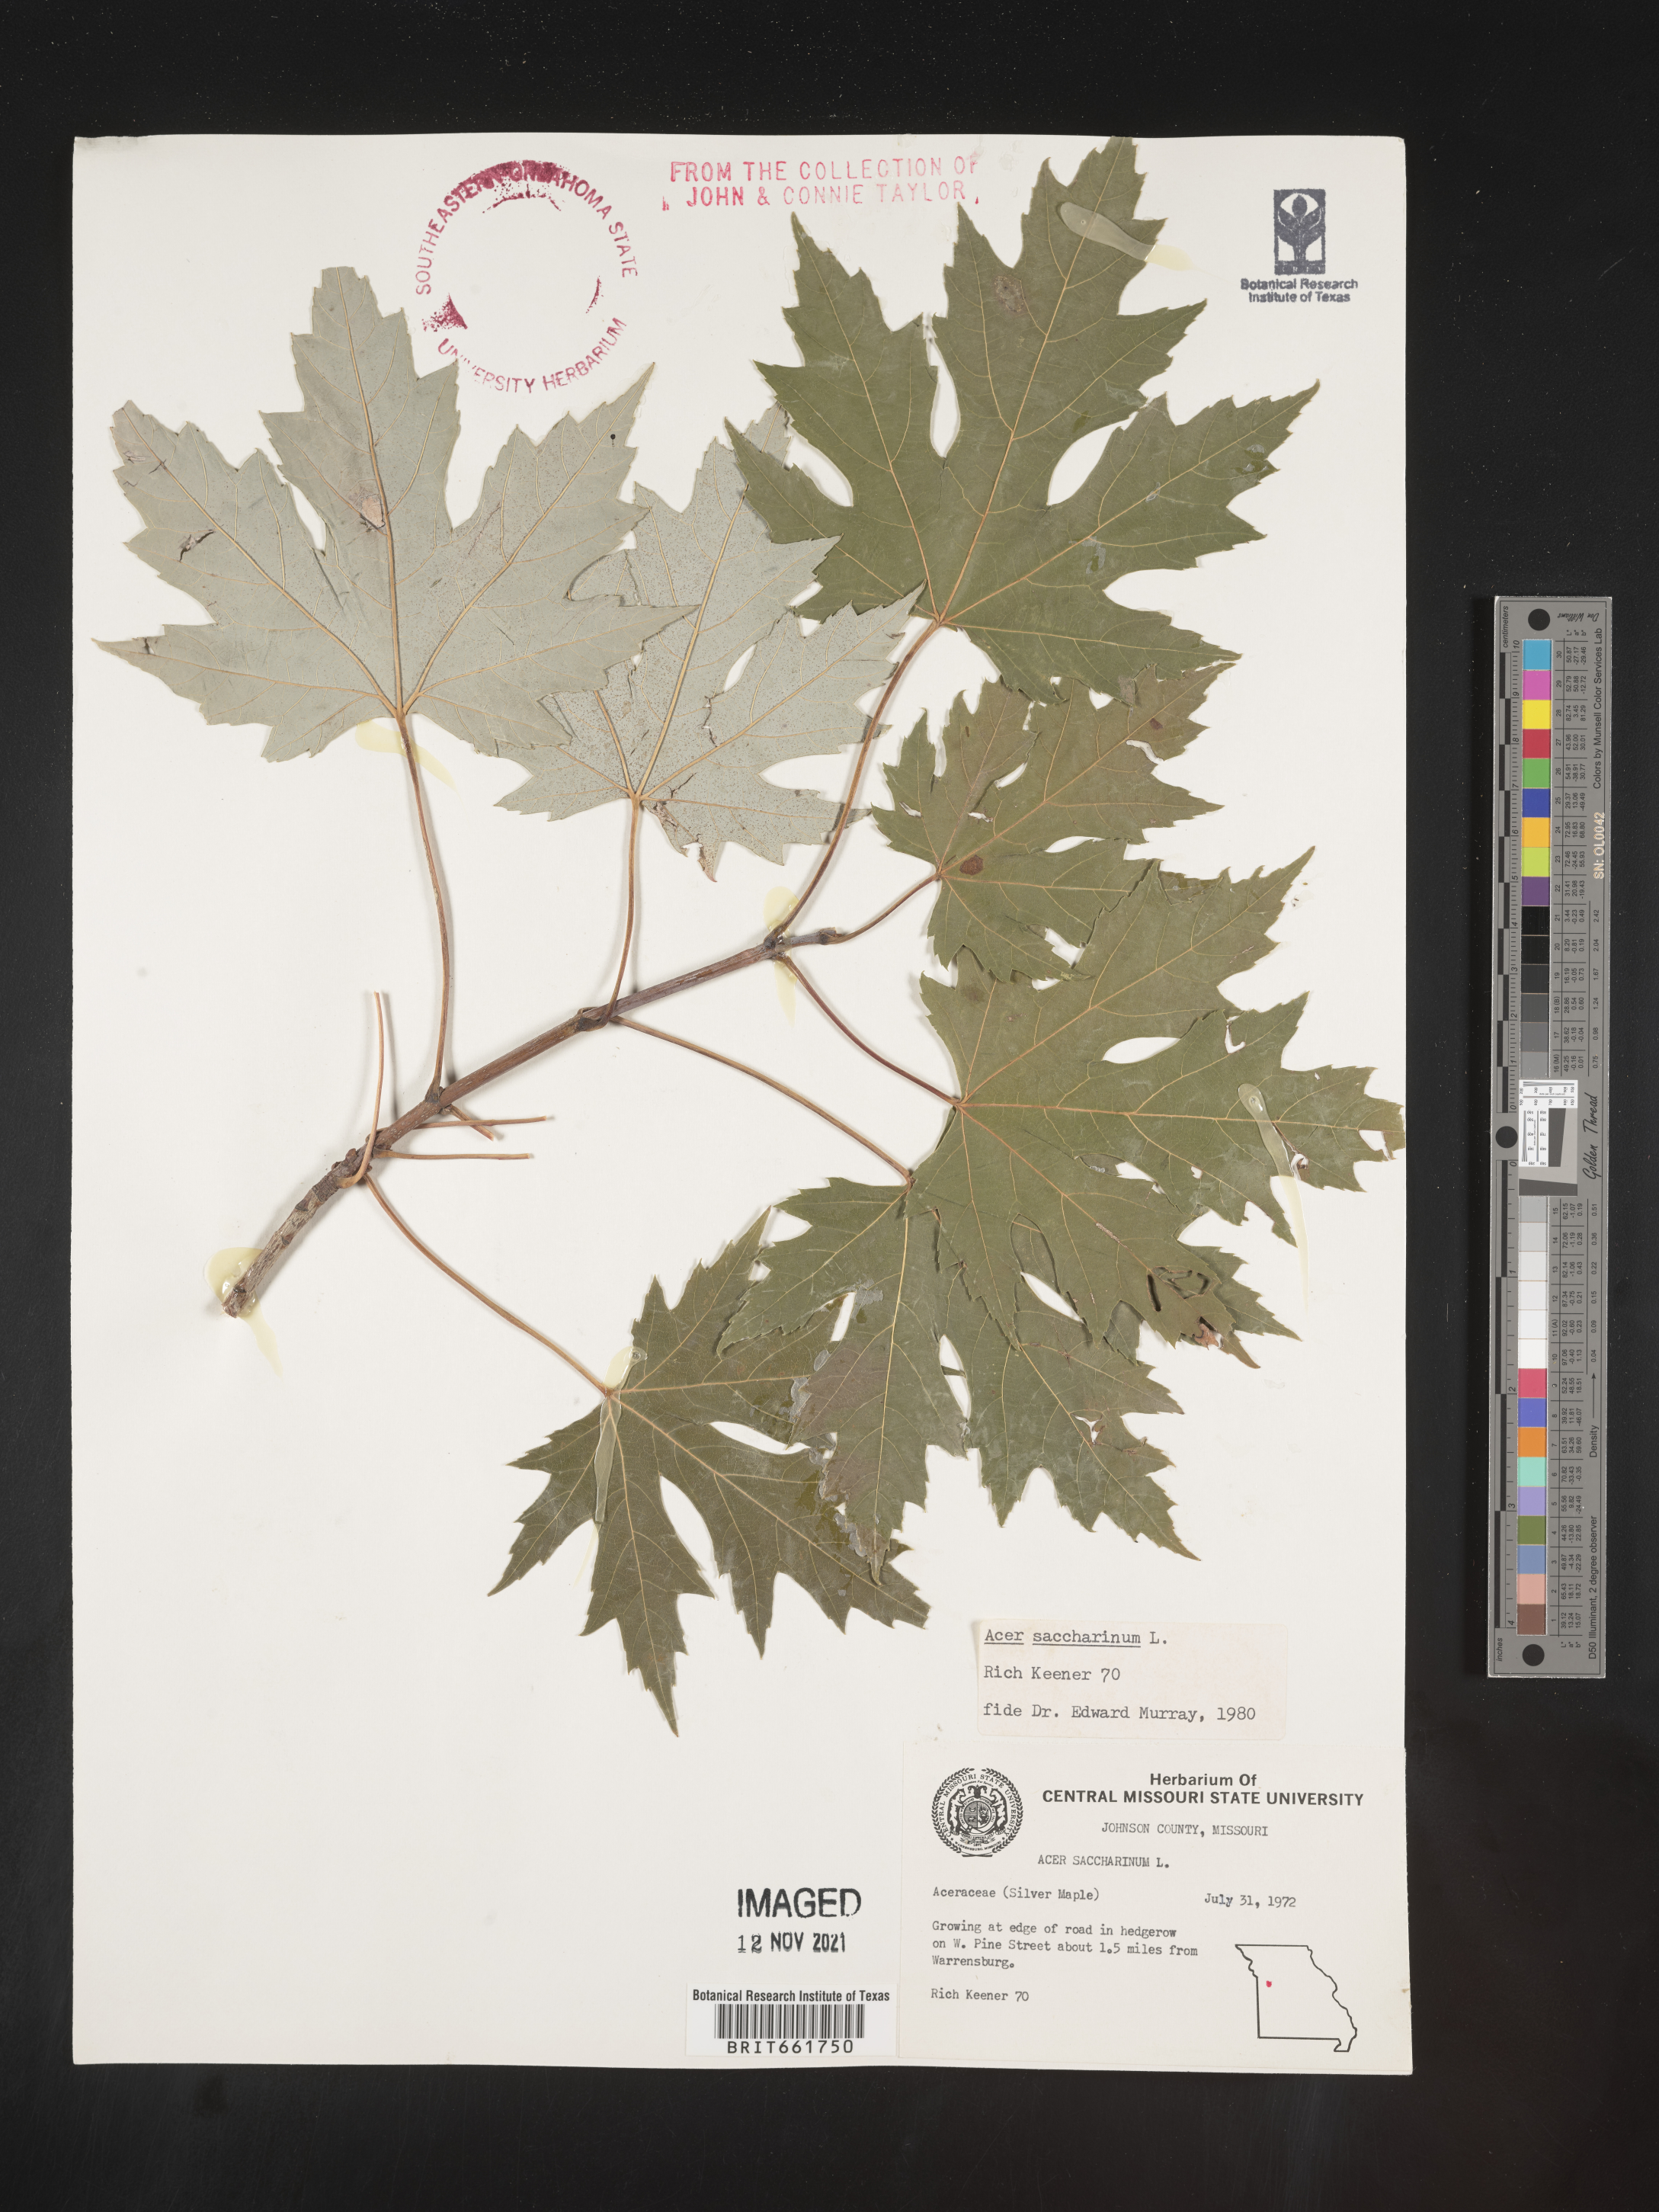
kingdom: Plantae
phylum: Tracheophyta
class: Magnoliopsida
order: Sapindales
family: Sapindaceae
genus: Acer
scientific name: Acer saccharinum
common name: Silver maple
